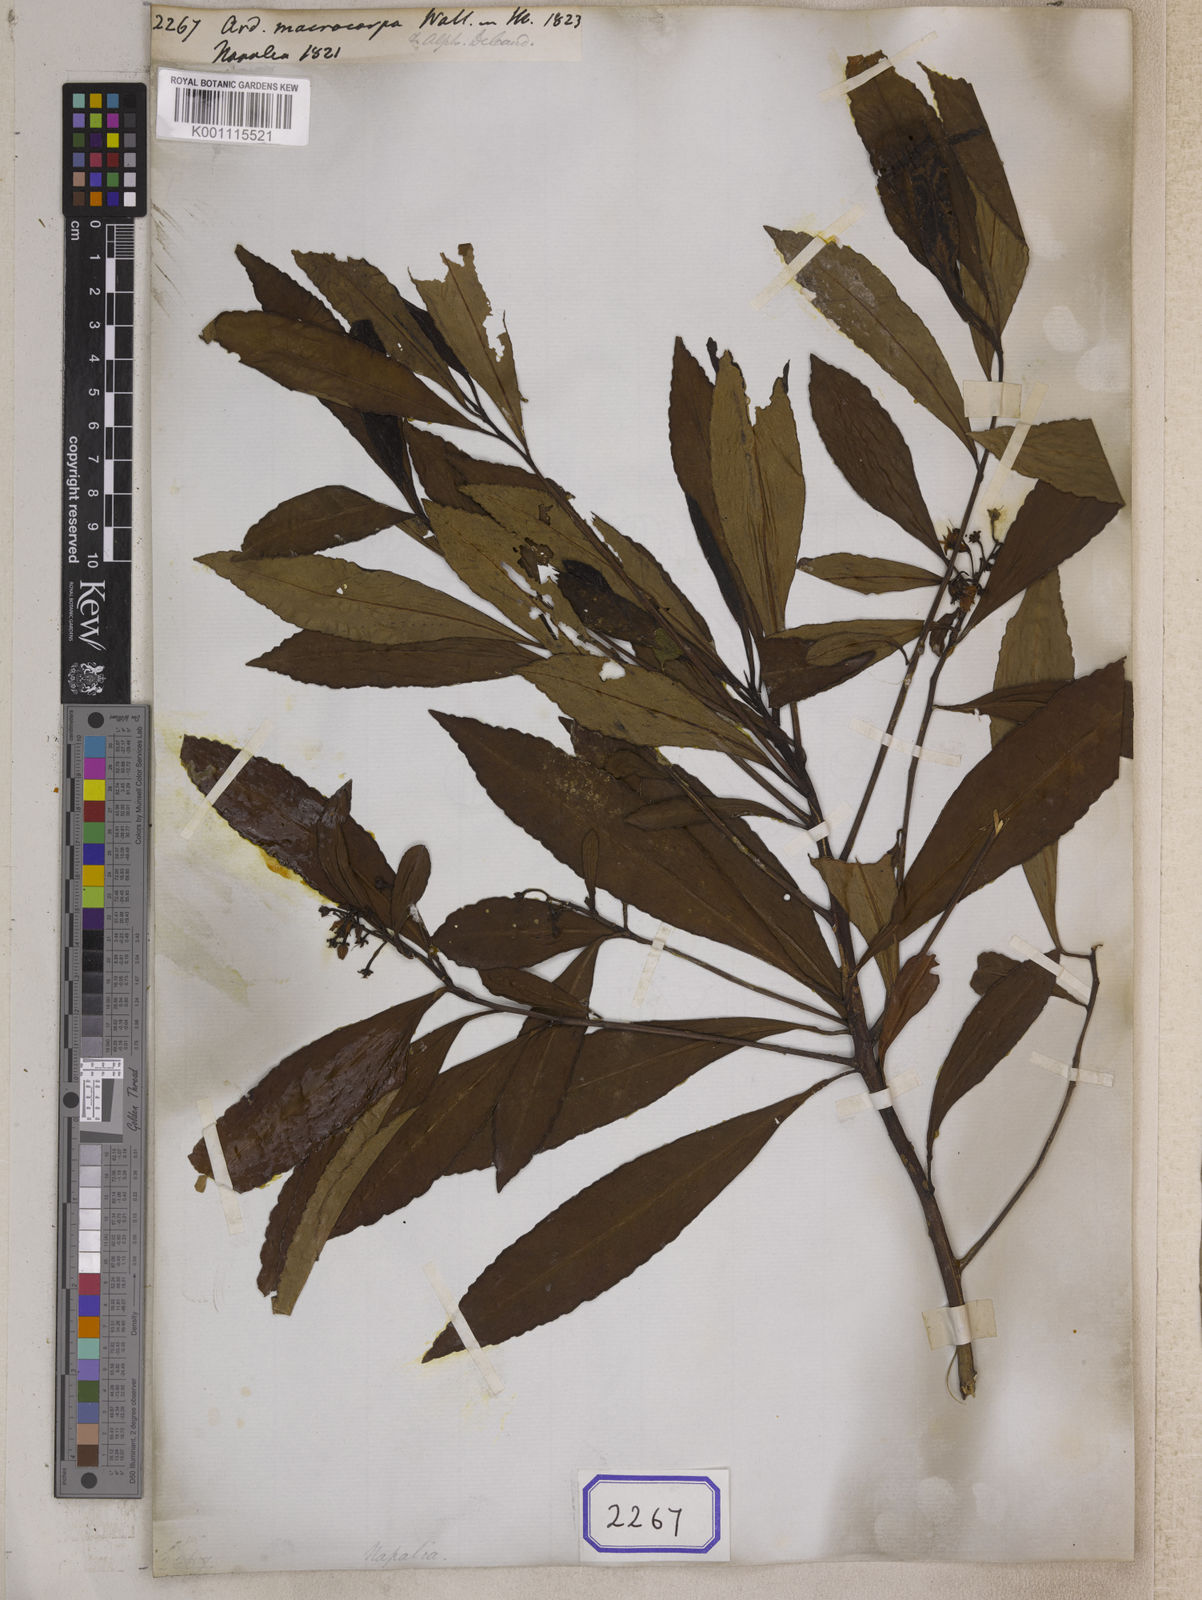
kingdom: Plantae
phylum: Tracheophyta
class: Magnoliopsida
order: Ericales
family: Primulaceae
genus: Ardisia
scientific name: Ardisia macrocarpa
